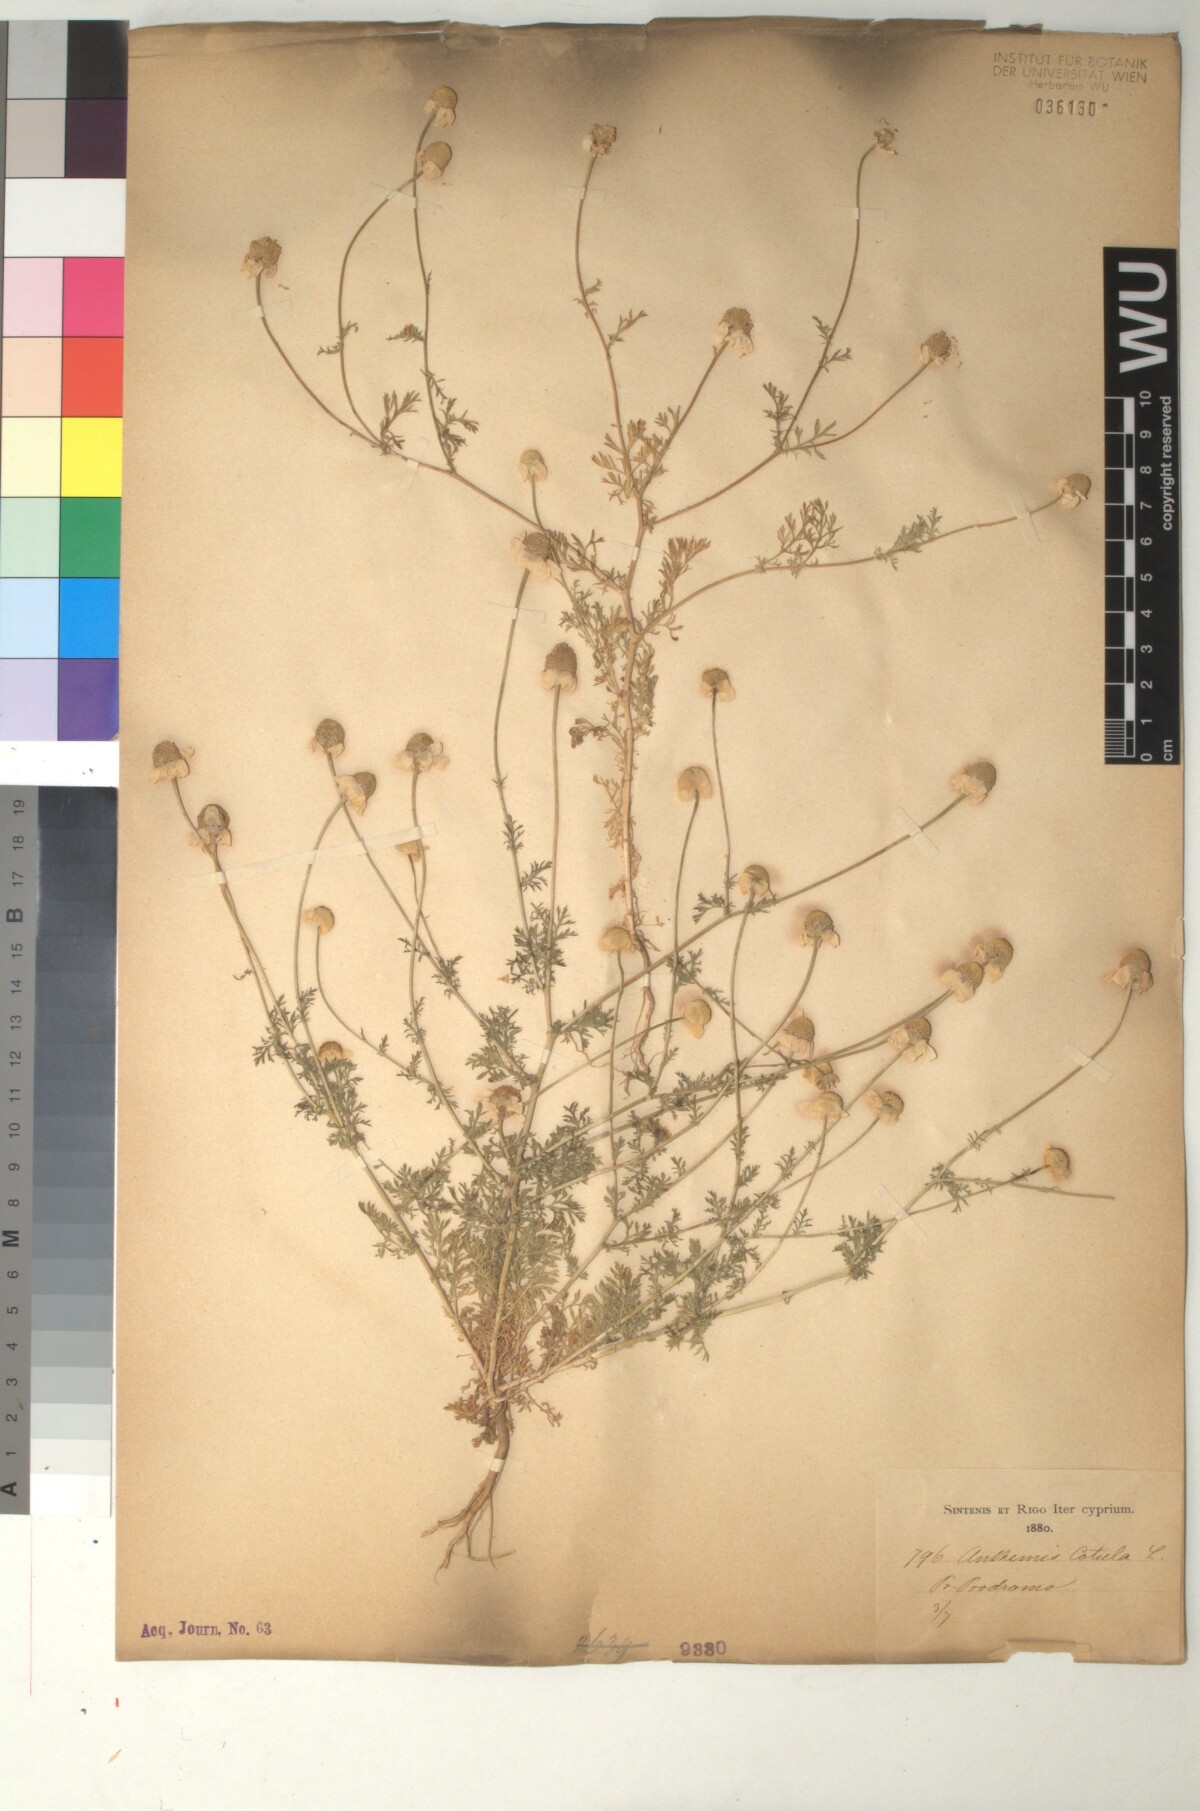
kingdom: Plantae
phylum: Tracheophyta
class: Magnoliopsida
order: Asterales
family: Asteraceae
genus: Anthemis
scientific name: Anthemis cotula
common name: Stinking chamomile
